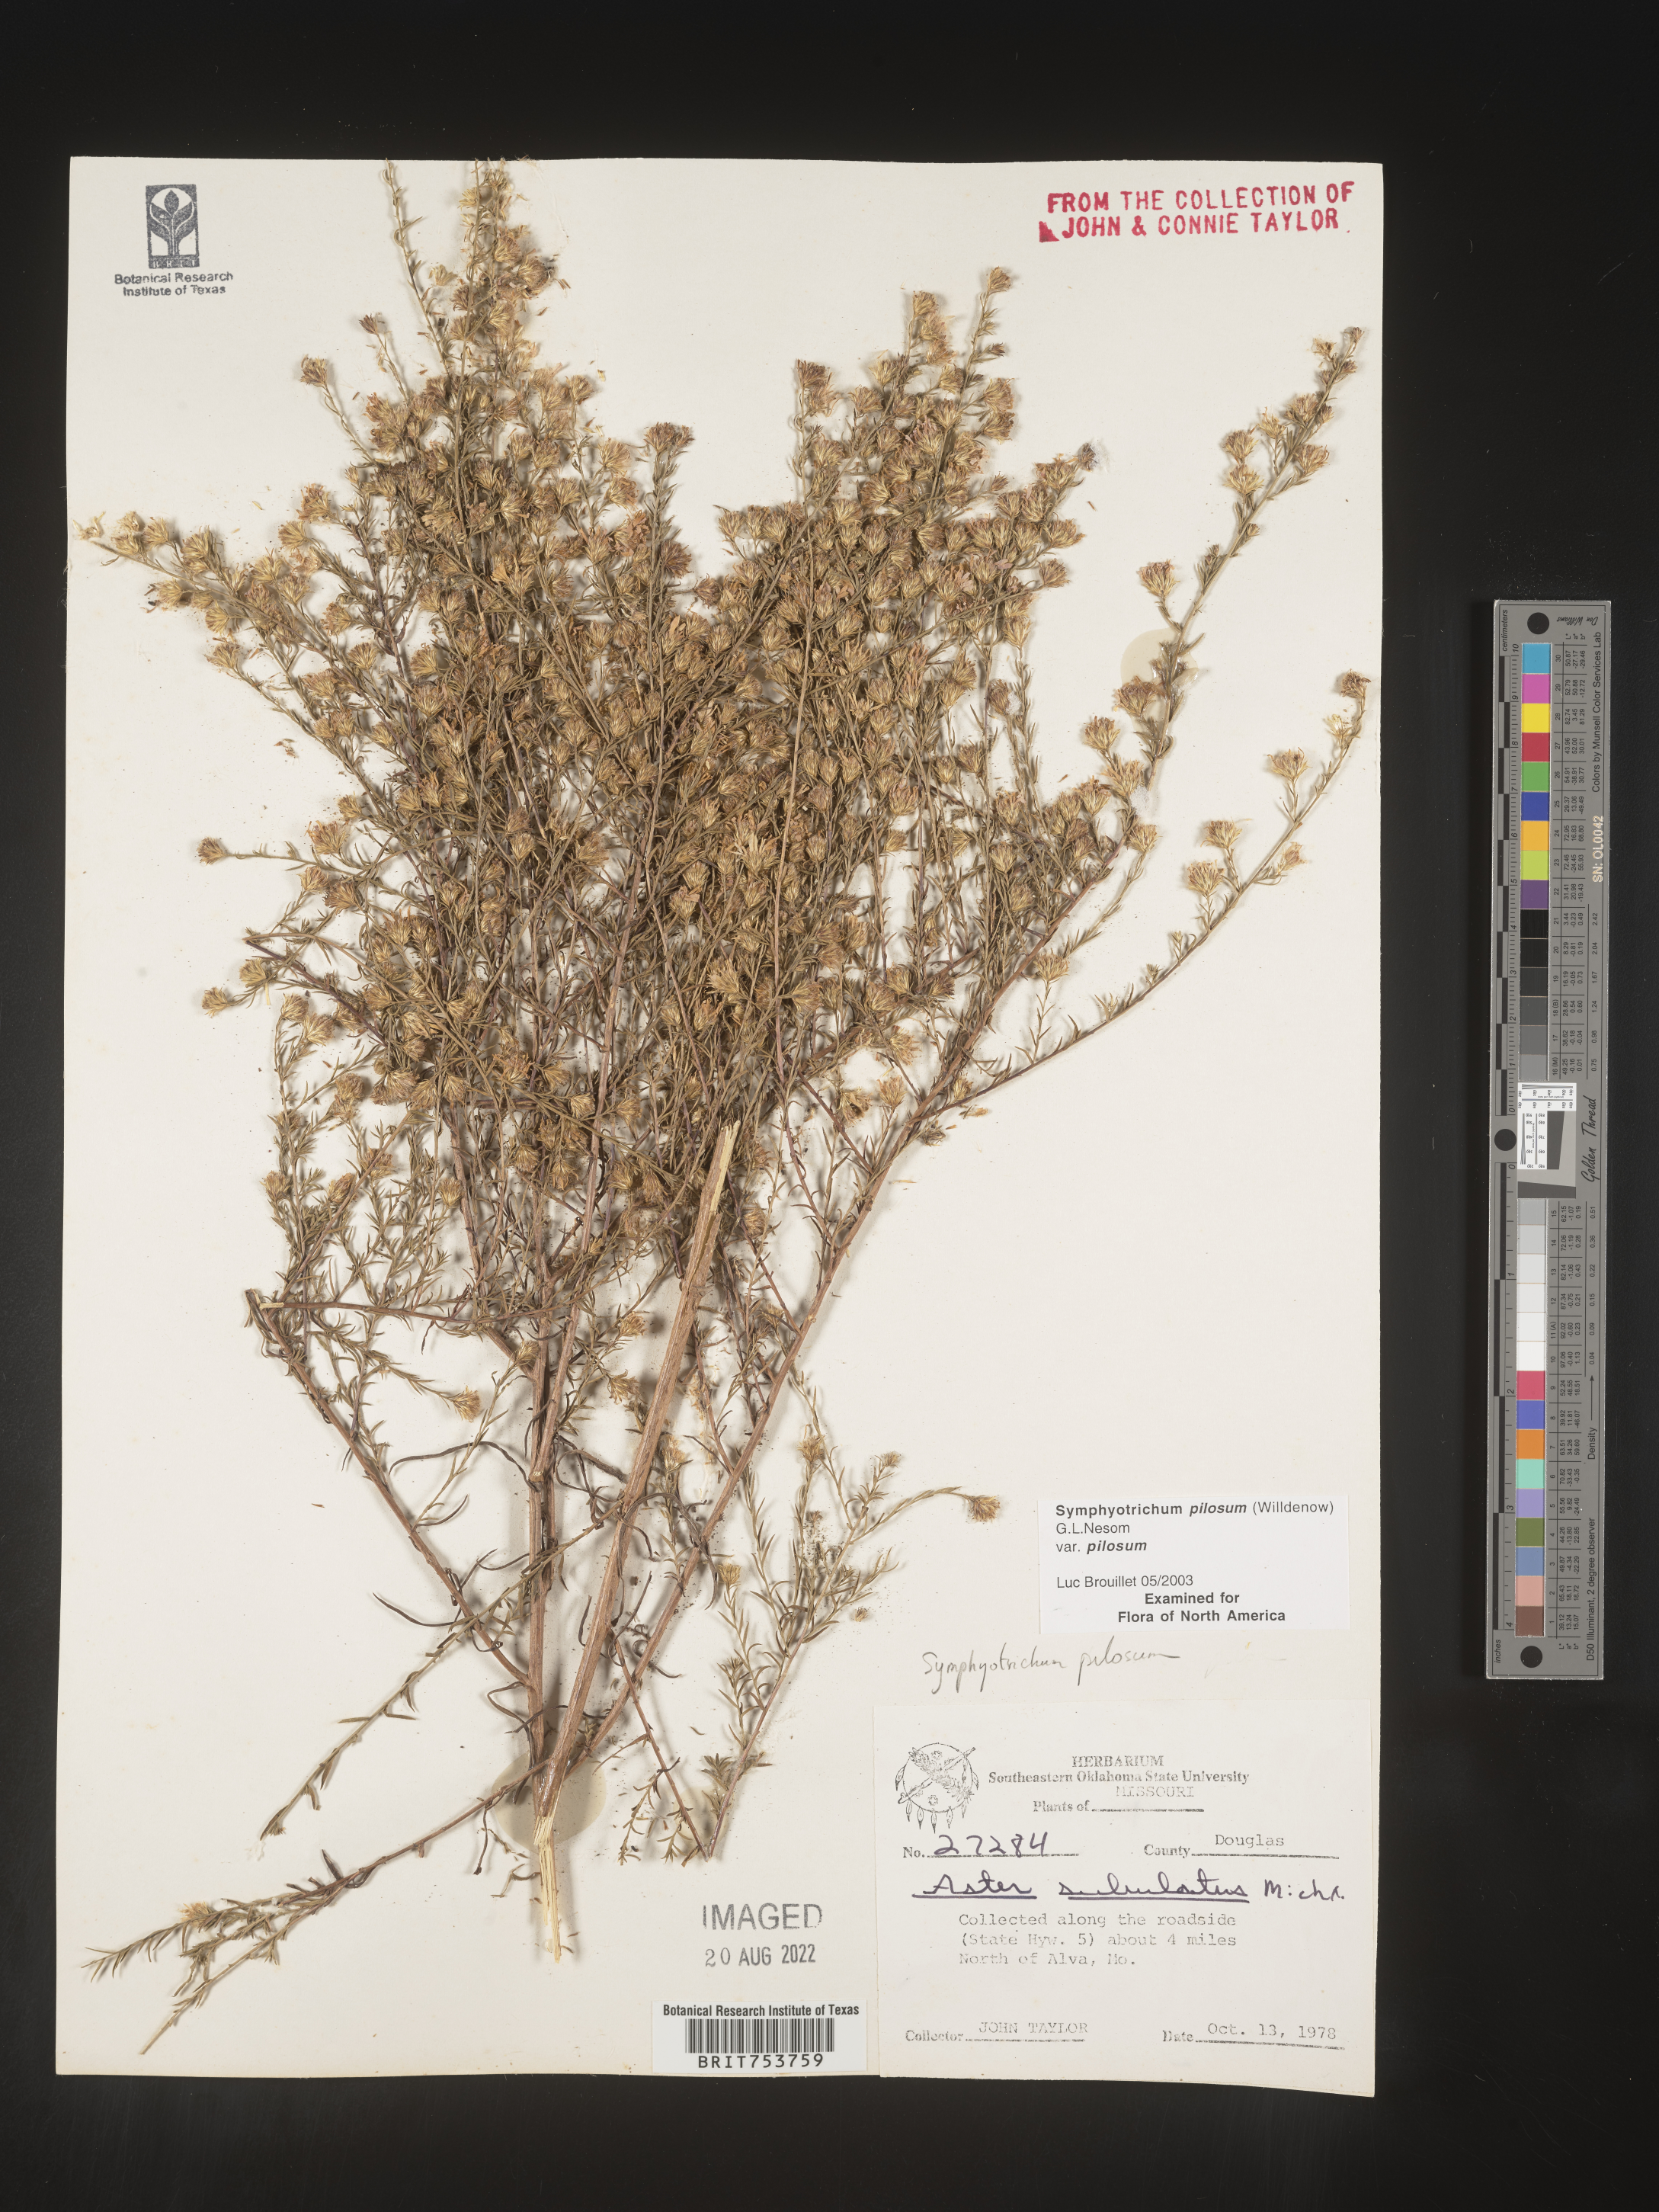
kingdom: Plantae
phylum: Tracheophyta
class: Magnoliopsida
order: Asterales
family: Asteraceae
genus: Symphyotrichum
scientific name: Symphyotrichum pilosum
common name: Awl aster
